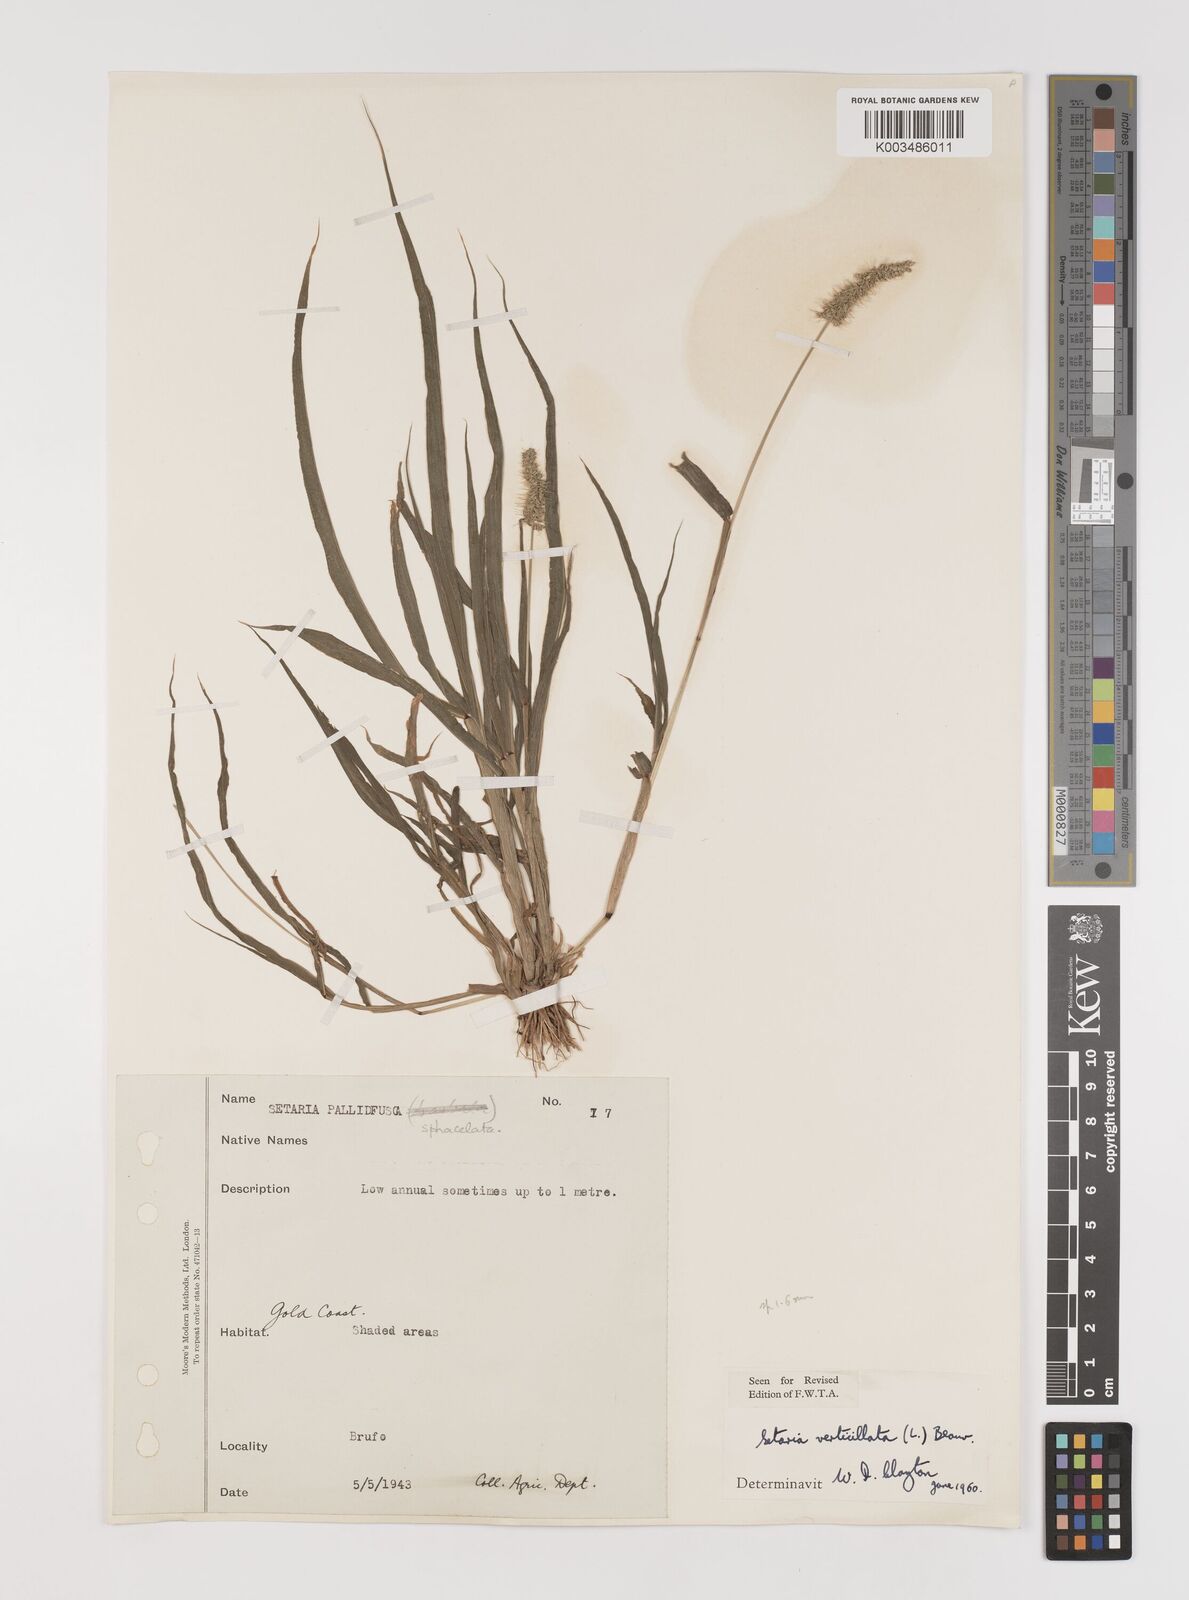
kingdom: Plantae
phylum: Tracheophyta
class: Liliopsida
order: Poales
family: Poaceae
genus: Setaria
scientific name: Setaria verticillata
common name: Hooked bristlegrass
